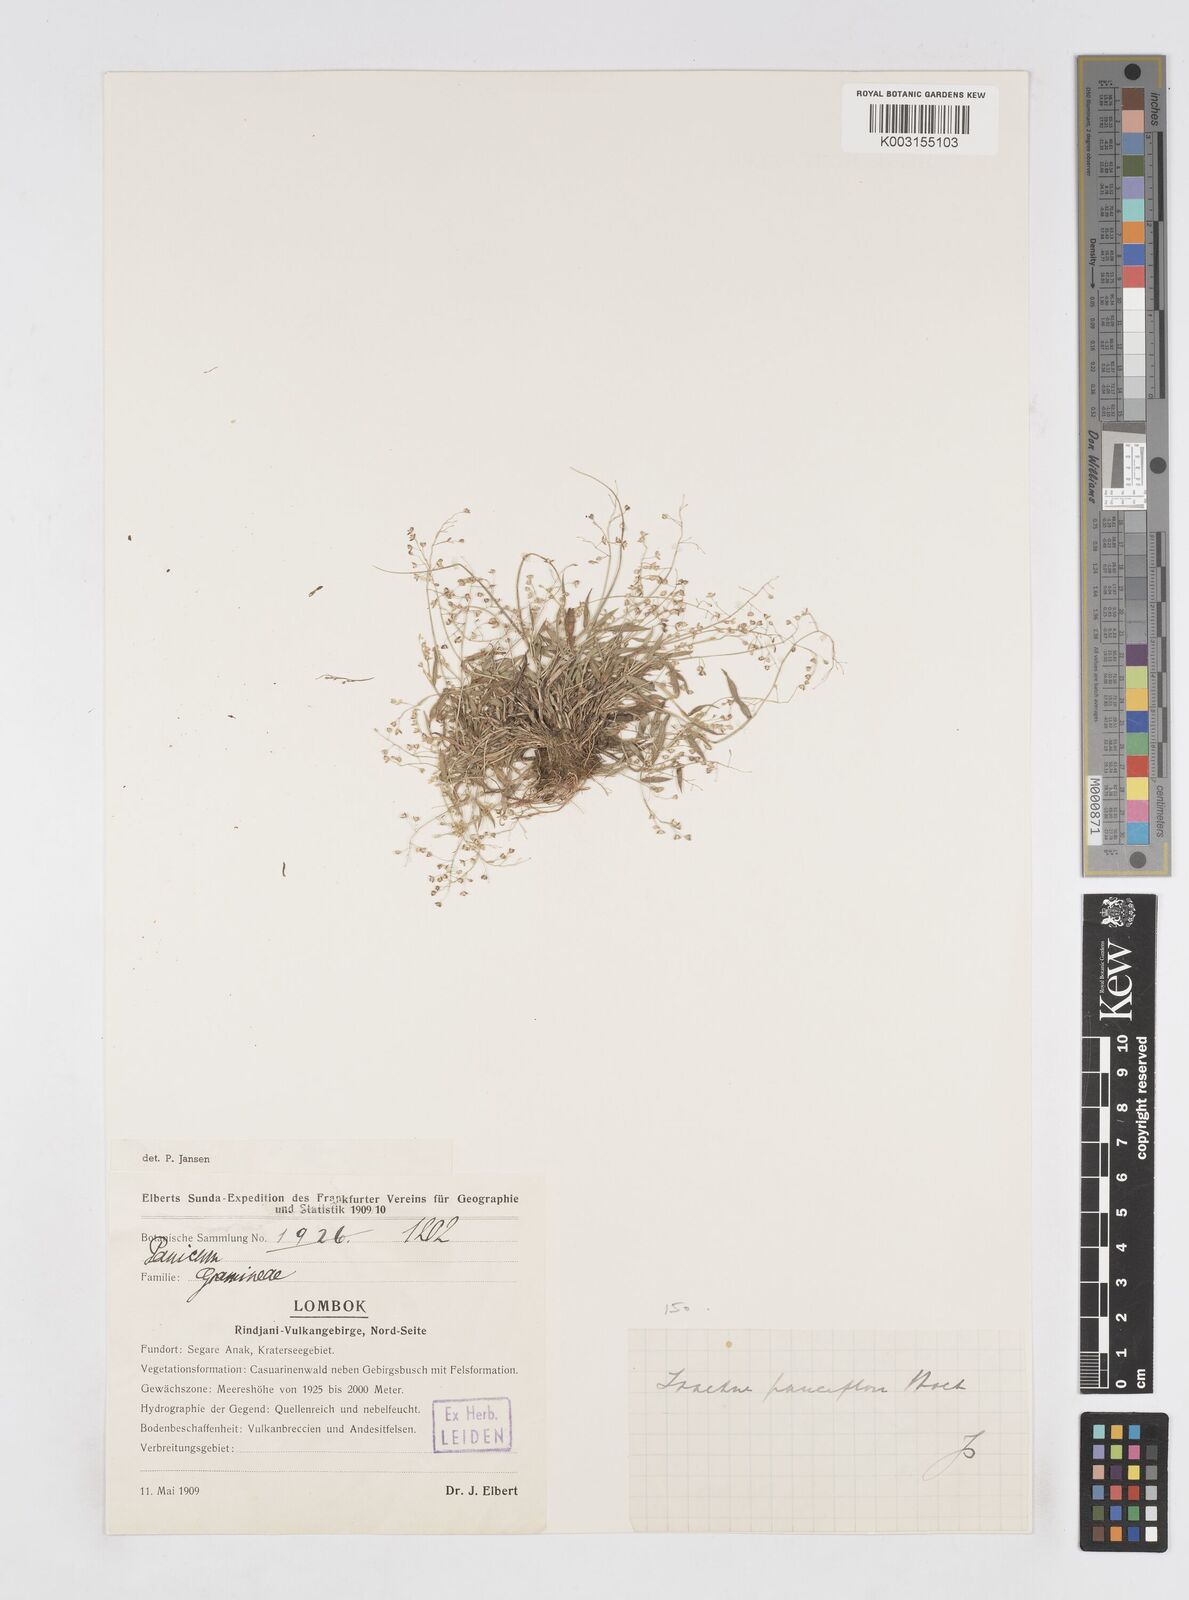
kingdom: Plantae
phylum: Tracheophyta
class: Liliopsida
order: Poales
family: Poaceae
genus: Isachne
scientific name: Isachne
